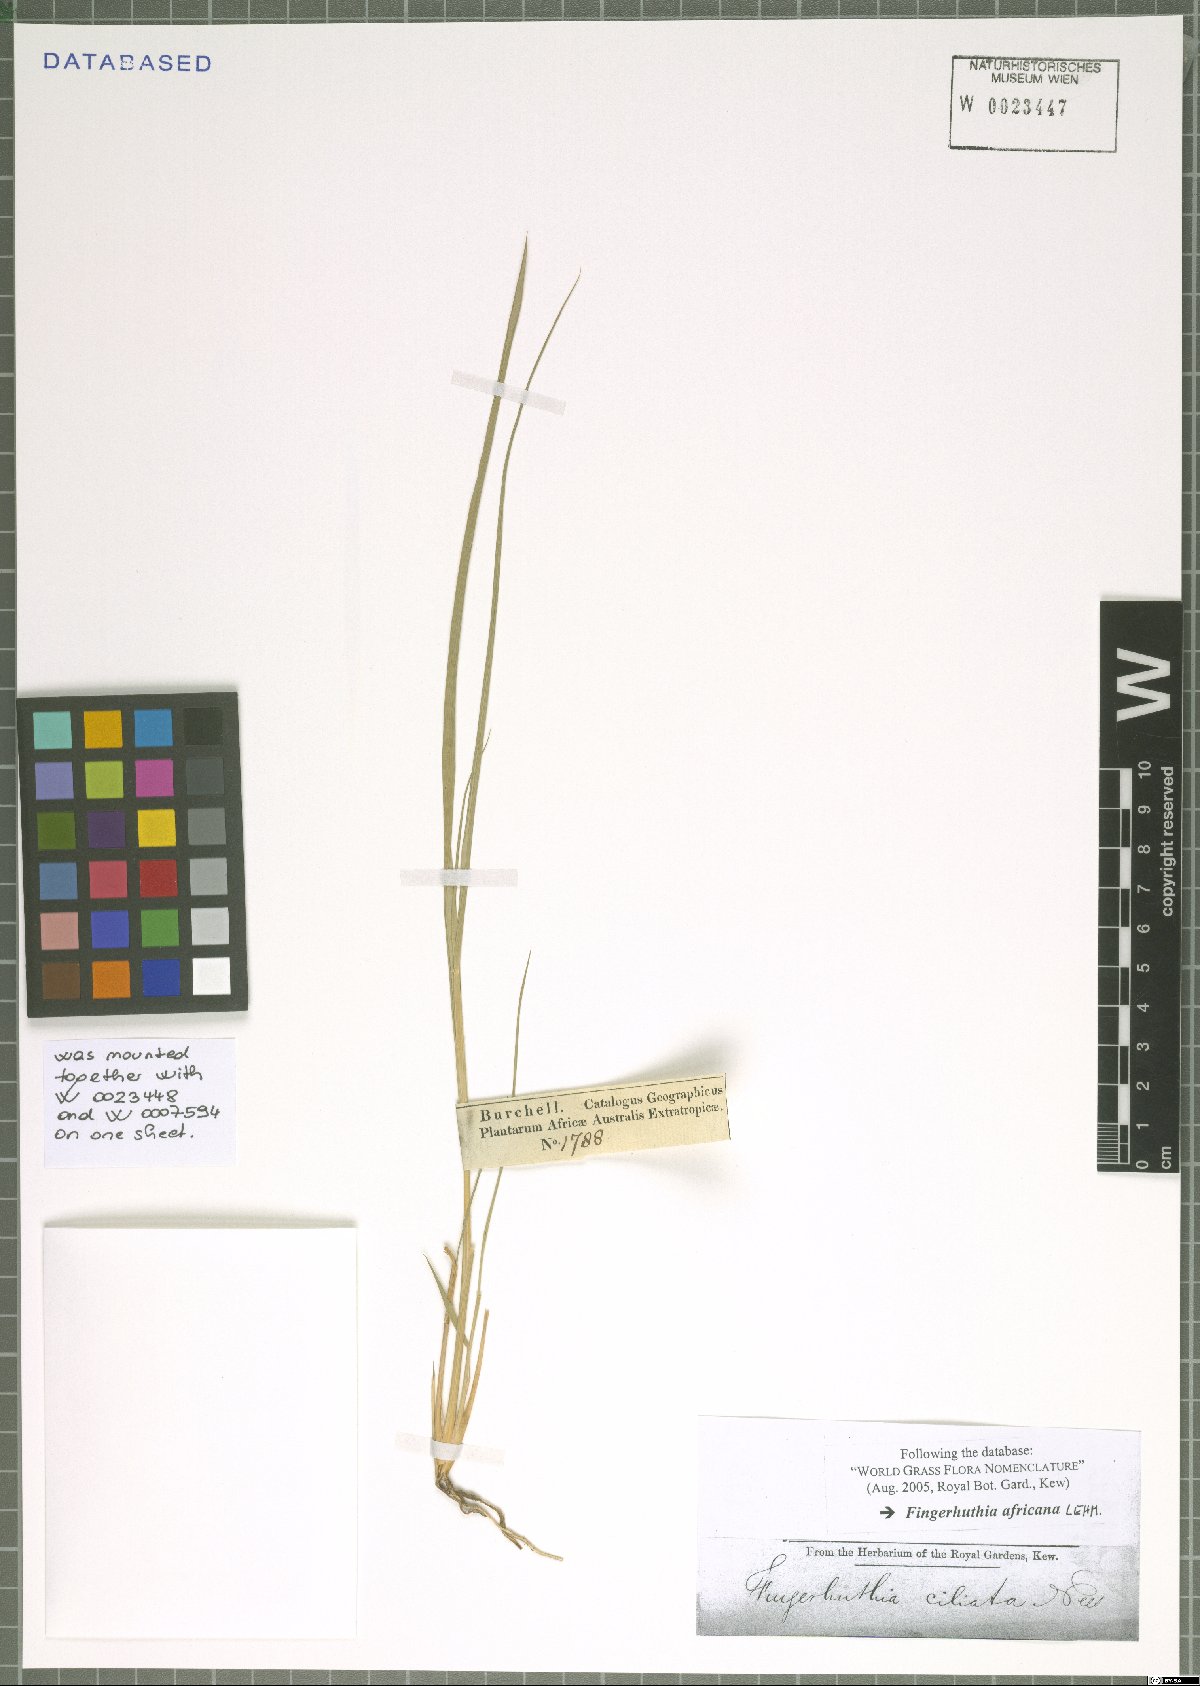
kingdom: Plantae
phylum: Tracheophyta
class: Liliopsida
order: Poales
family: Poaceae
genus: Fingerhuthia
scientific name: Fingerhuthia africana
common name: Zulu fescue
